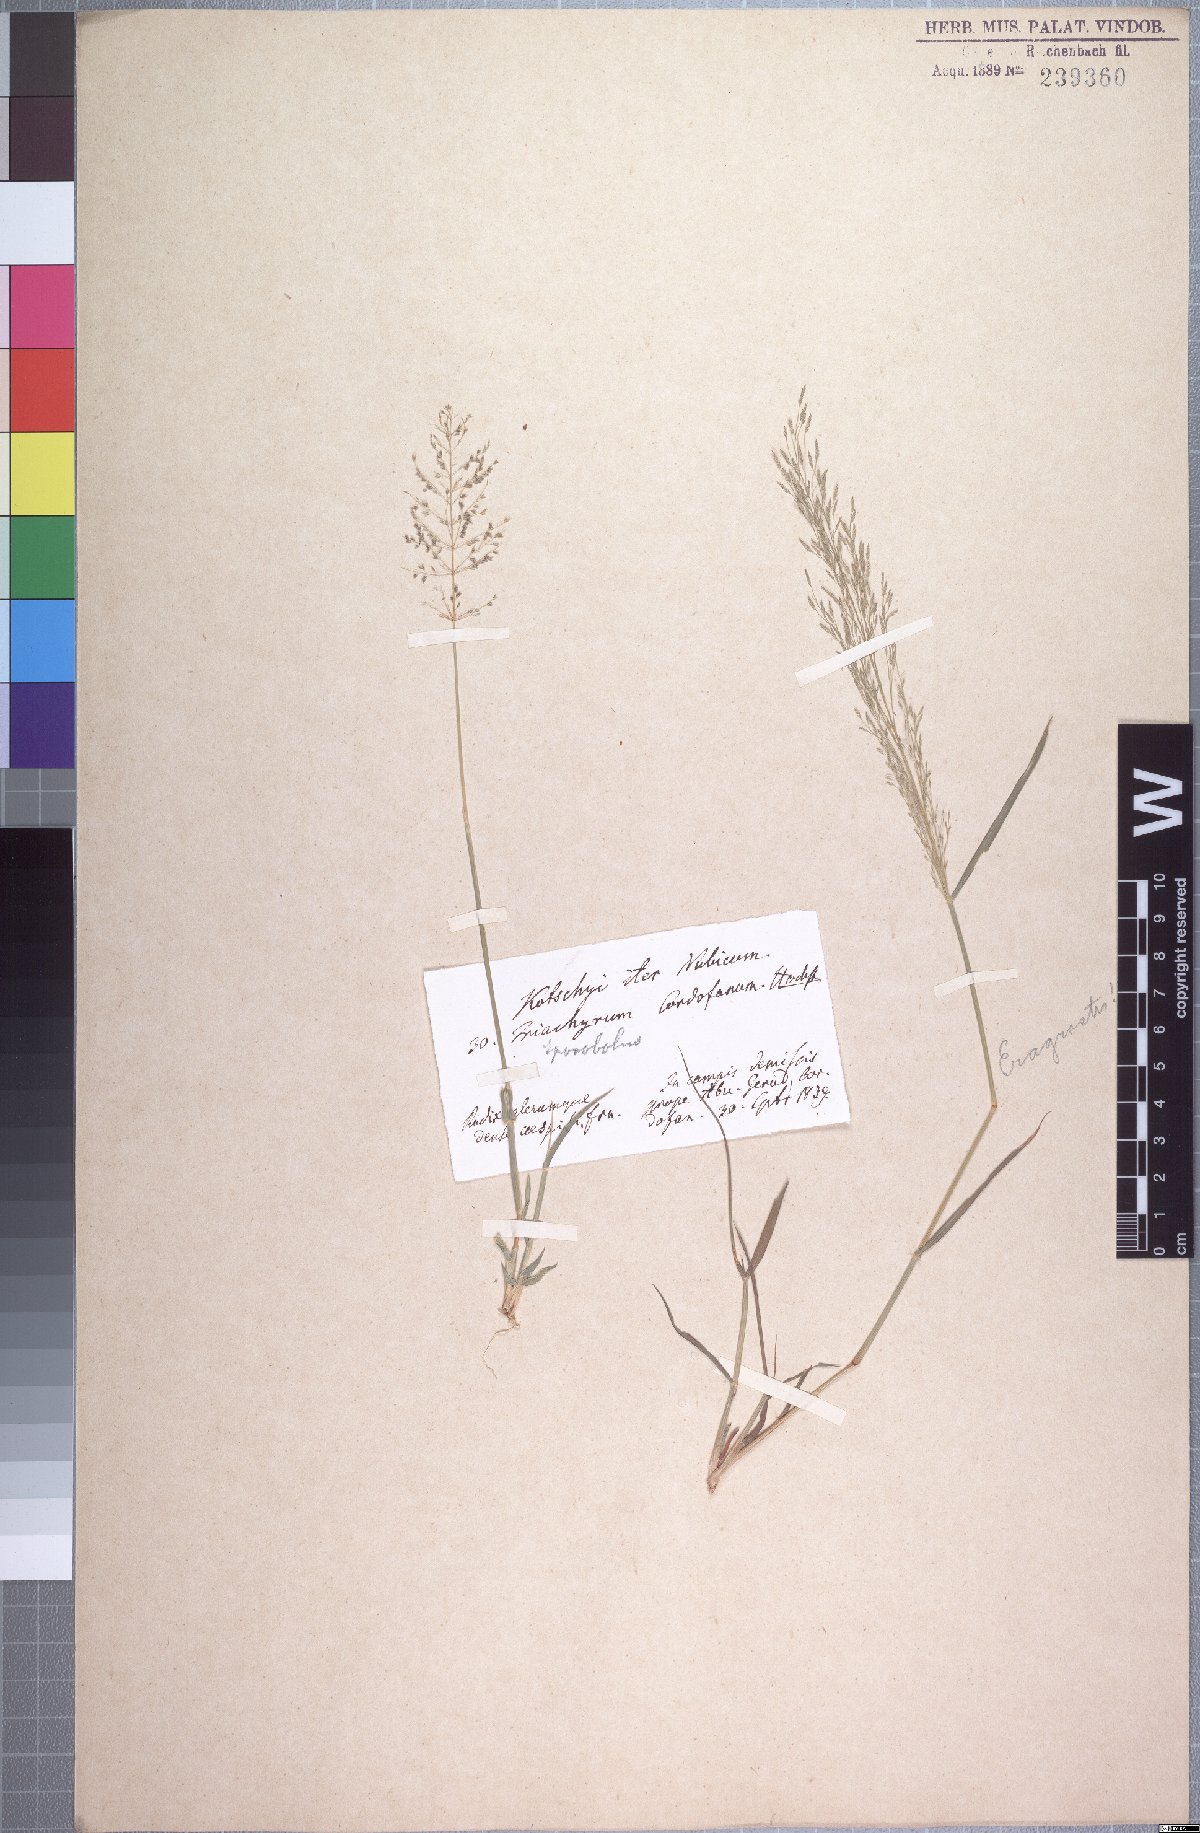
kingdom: Plantae
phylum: Tracheophyta
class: Liliopsida
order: Poales
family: Poaceae
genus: Sporobolus
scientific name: Sporobolus cordofanus
